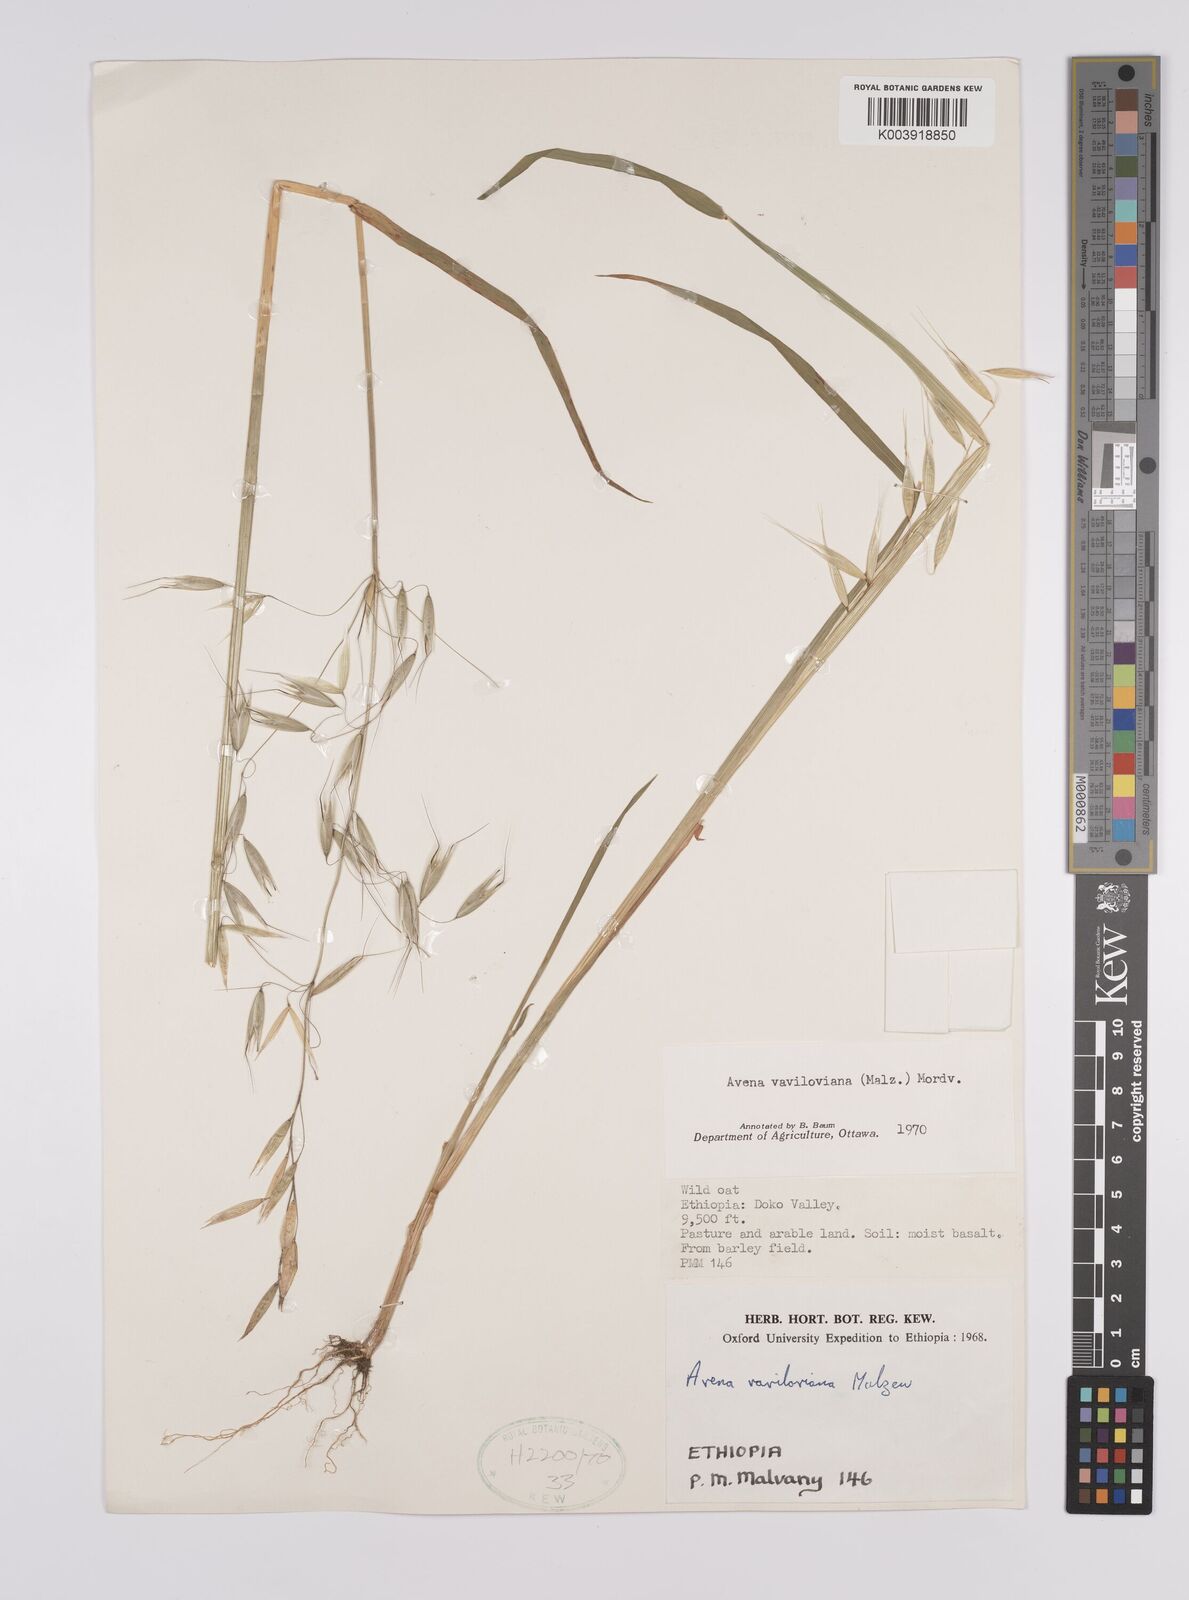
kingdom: Plantae
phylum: Tracheophyta
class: Liliopsida
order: Poales
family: Poaceae
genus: Avena
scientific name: Avena vaviloviana
